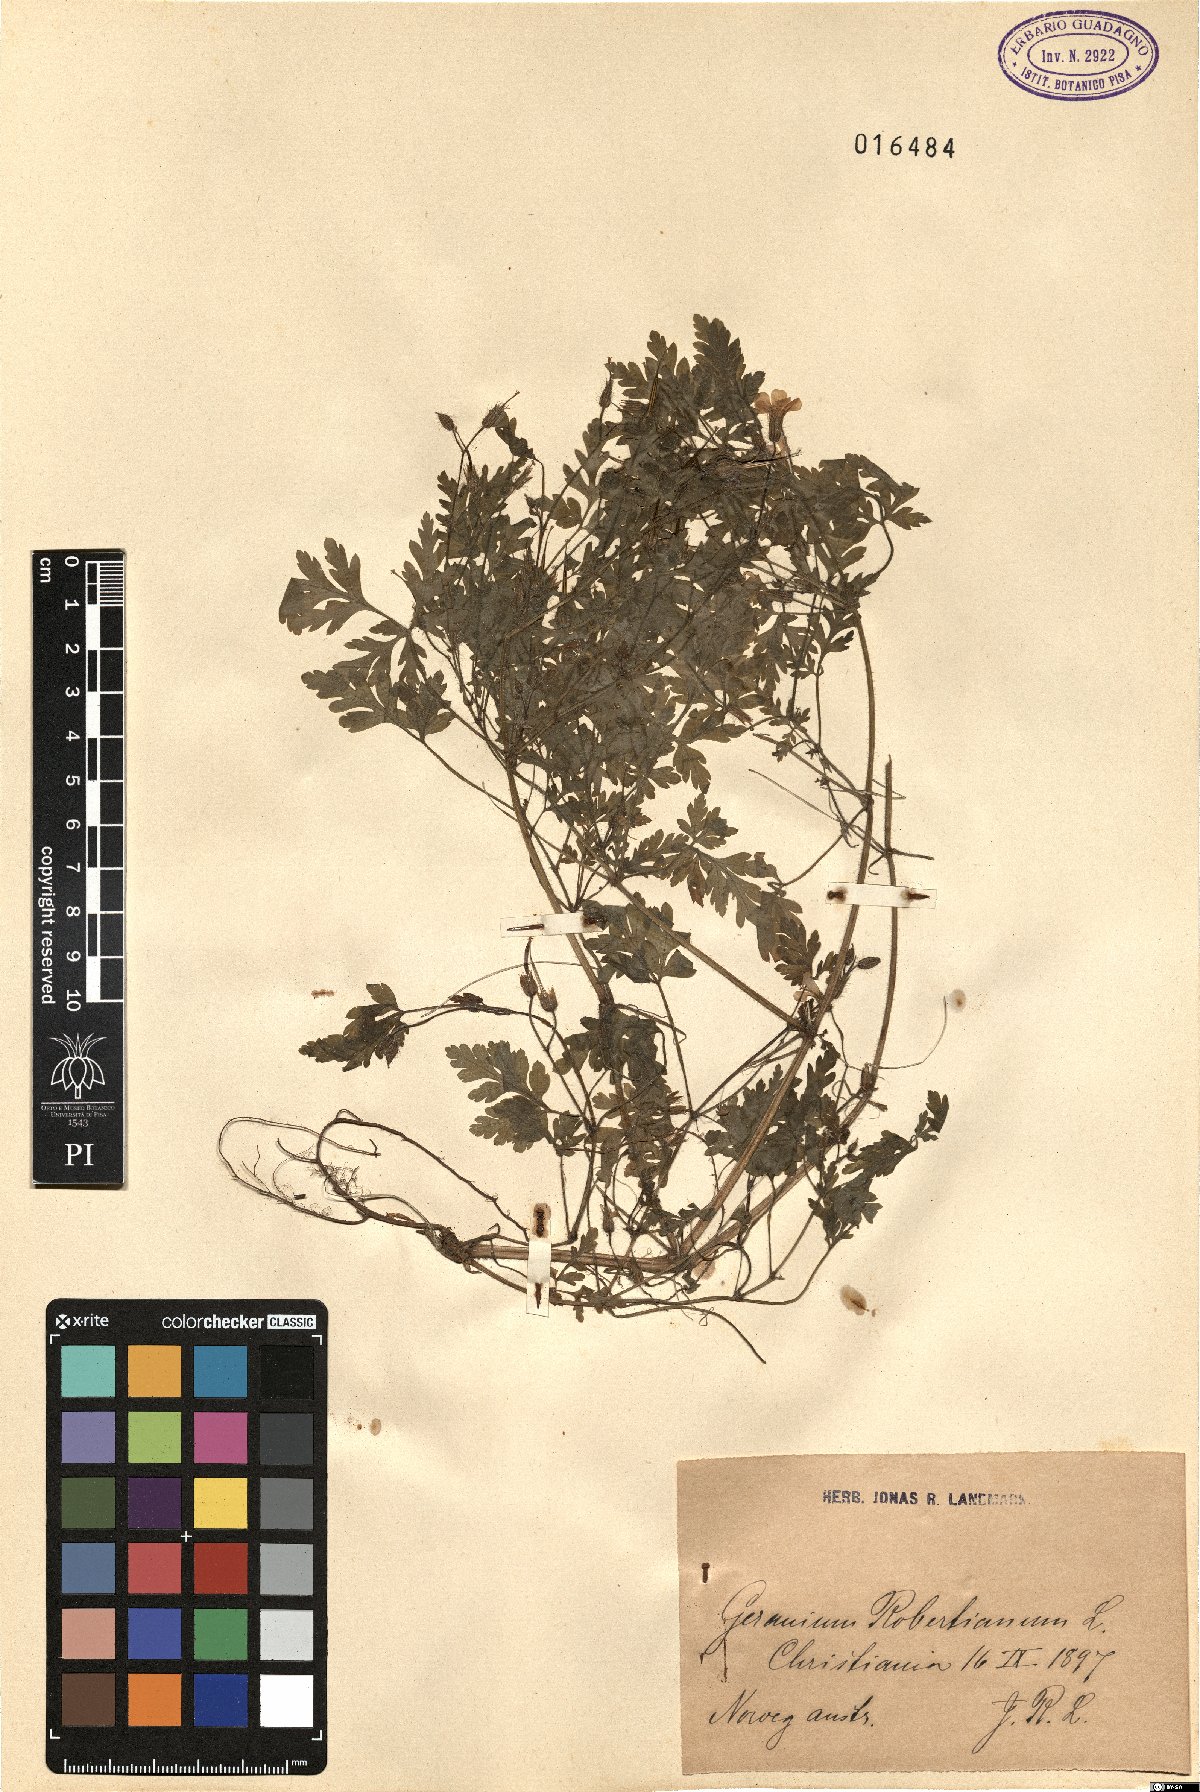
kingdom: Plantae
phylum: Tracheophyta
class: Magnoliopsida
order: Geraniales
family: Geraniaceae
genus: Geranium
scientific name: Geranium robertianum
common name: Herb-robert
